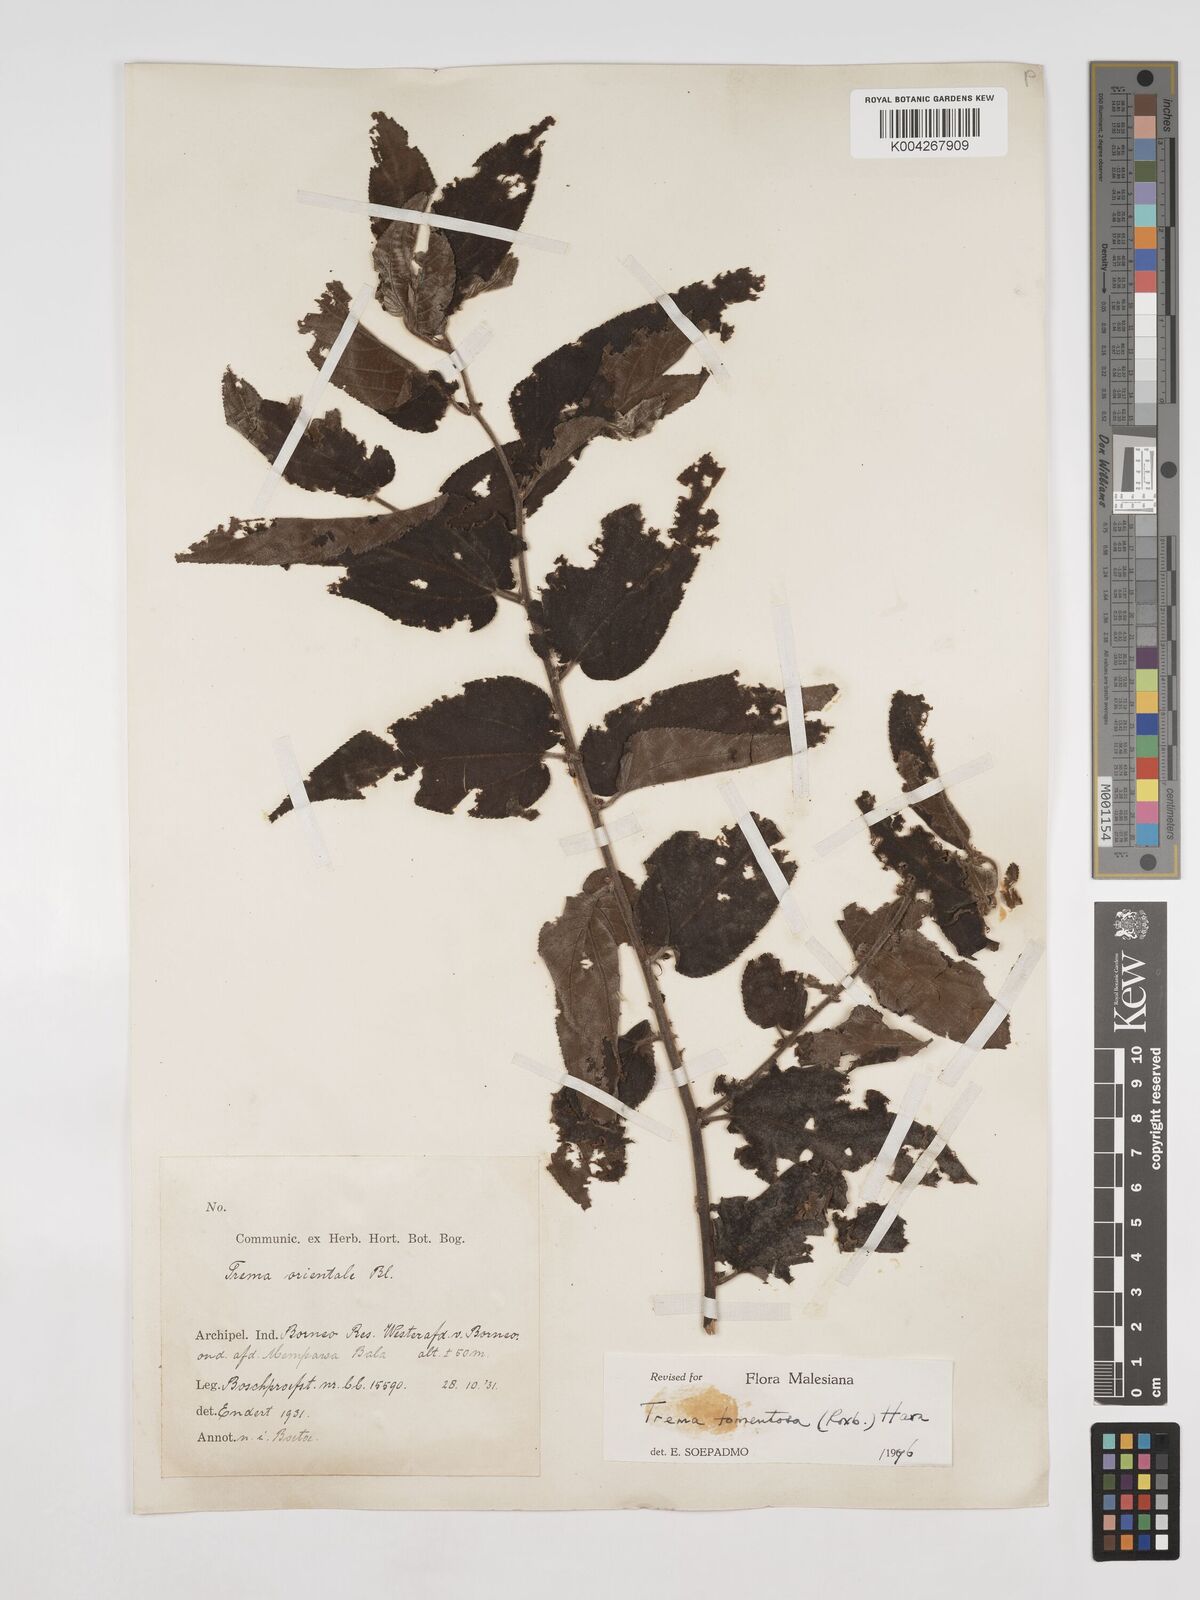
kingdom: Plantae
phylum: Tracheophyta
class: Magnoliopsida
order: Rosales
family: Cannabaceae
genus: Trema
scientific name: Trema tomentosum
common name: Peach-leaf-poisonbush
